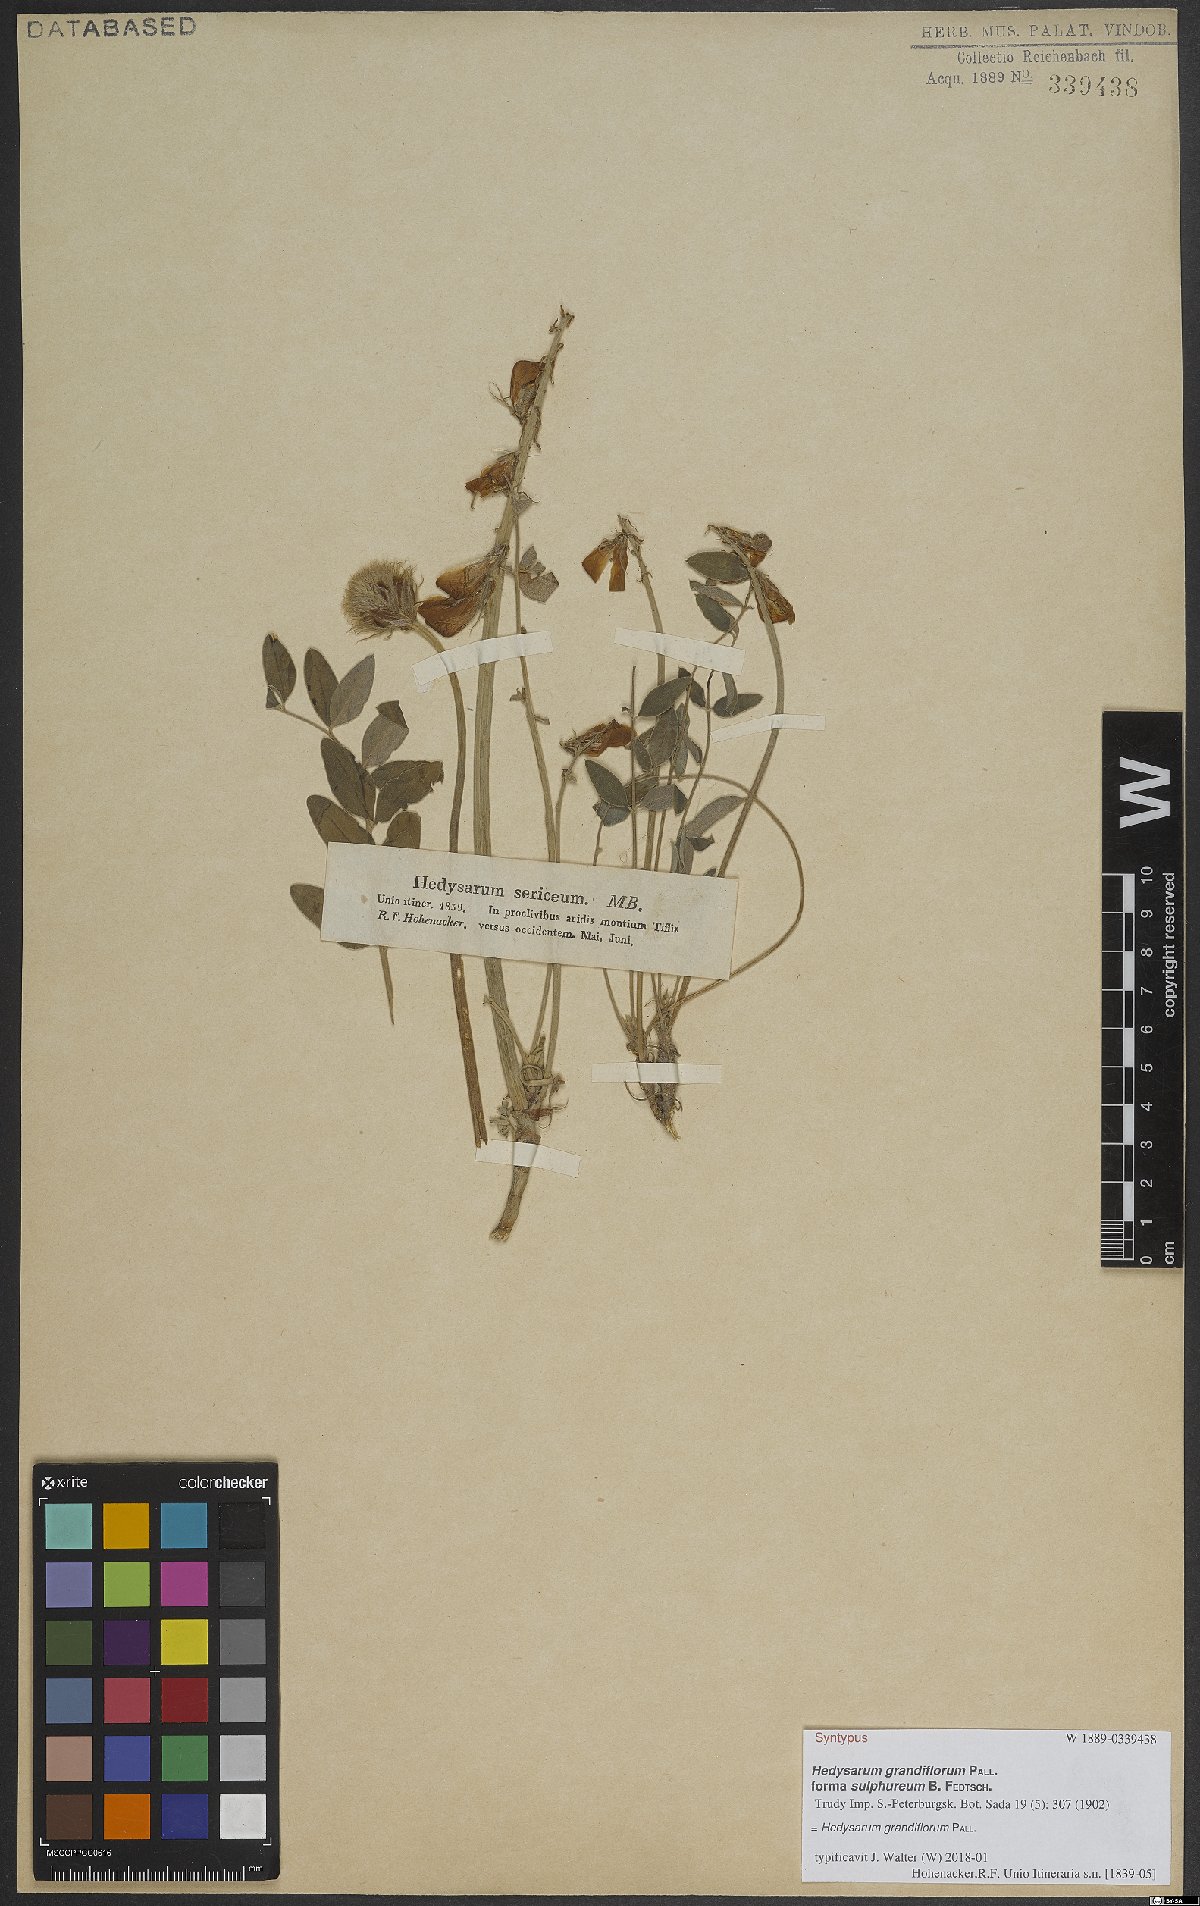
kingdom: Plantae
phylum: Tracheophyta
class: Magnoliopsida
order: Fabales
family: Fabaceae
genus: Hedysarum
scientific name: Hedysarum grandiflorum
